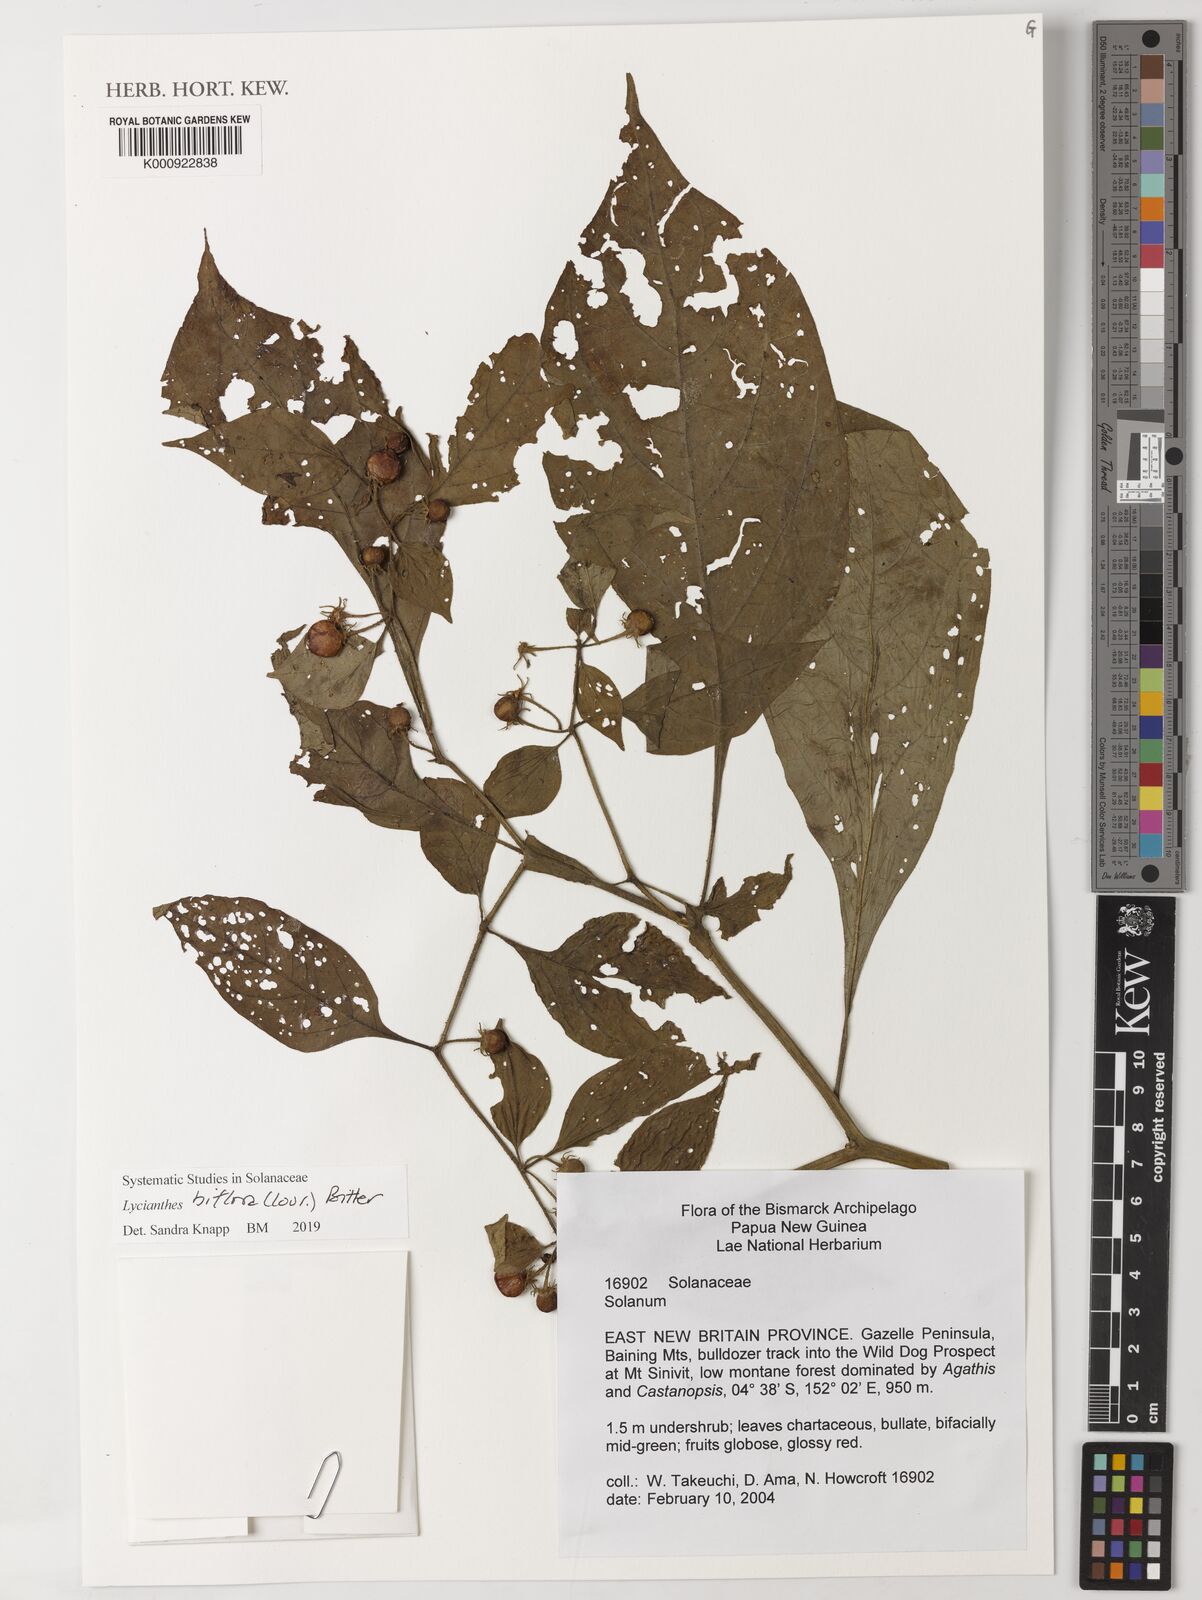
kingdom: Plantae
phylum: Tracheophyta
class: Magnoliopsida
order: Solanales
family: Solanaceae
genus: Lycianthes
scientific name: Lycianthes biflora
